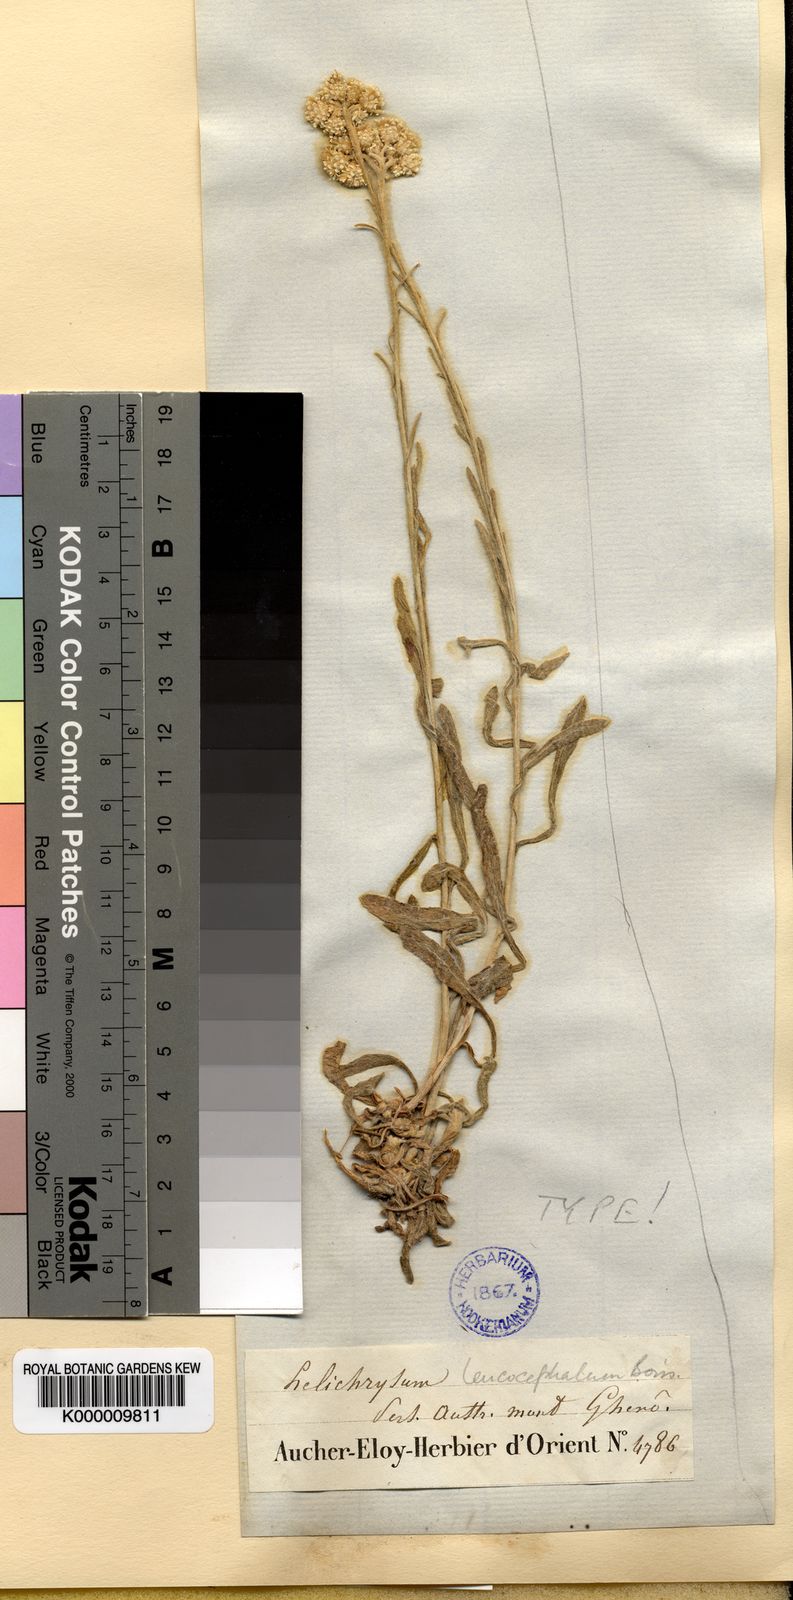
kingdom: Plantae
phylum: Tracheophyta
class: Magnoliopsida
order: Asterales
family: Asteraceae
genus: Helichrysum
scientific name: Helichrysum leucocephalum
